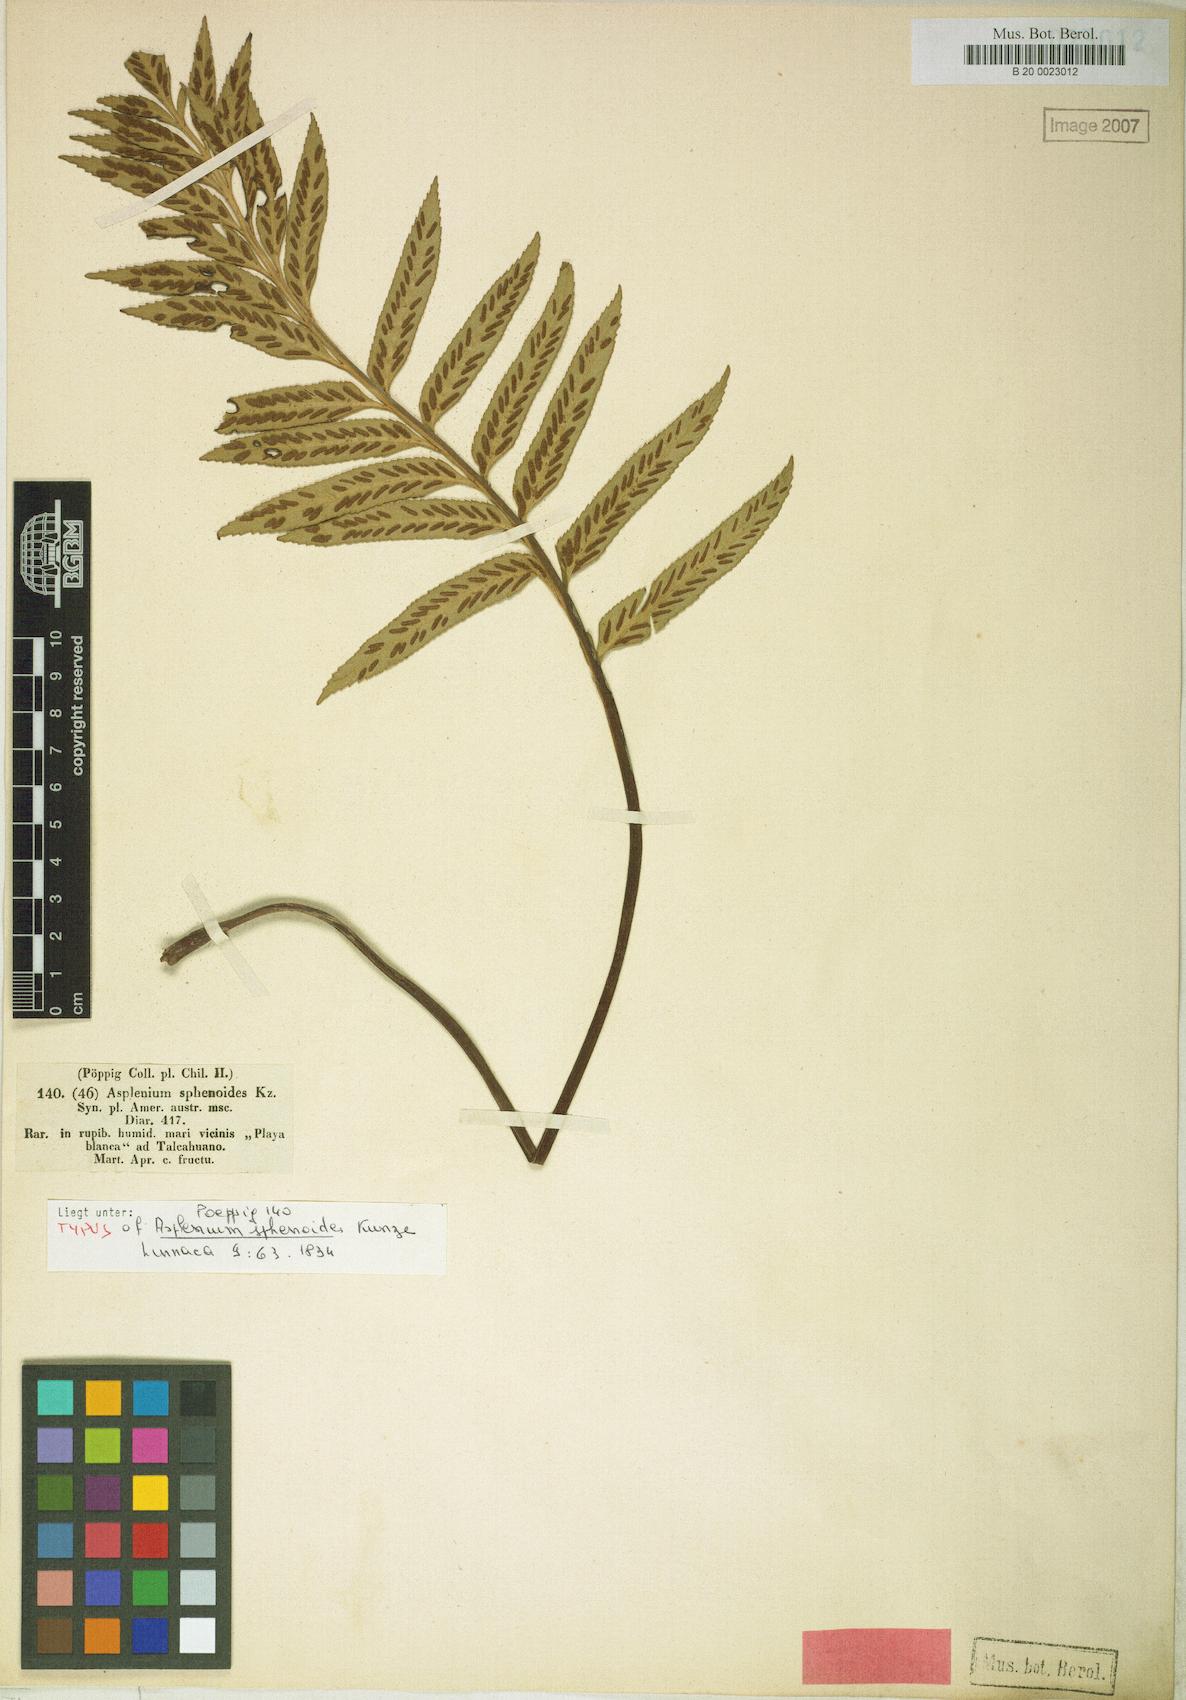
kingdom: Plantae
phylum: Tracheophyta
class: Polypodiopsida
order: Polypodiales
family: Aspleniaceae
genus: Asplenium
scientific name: Asplenium obtusatum
